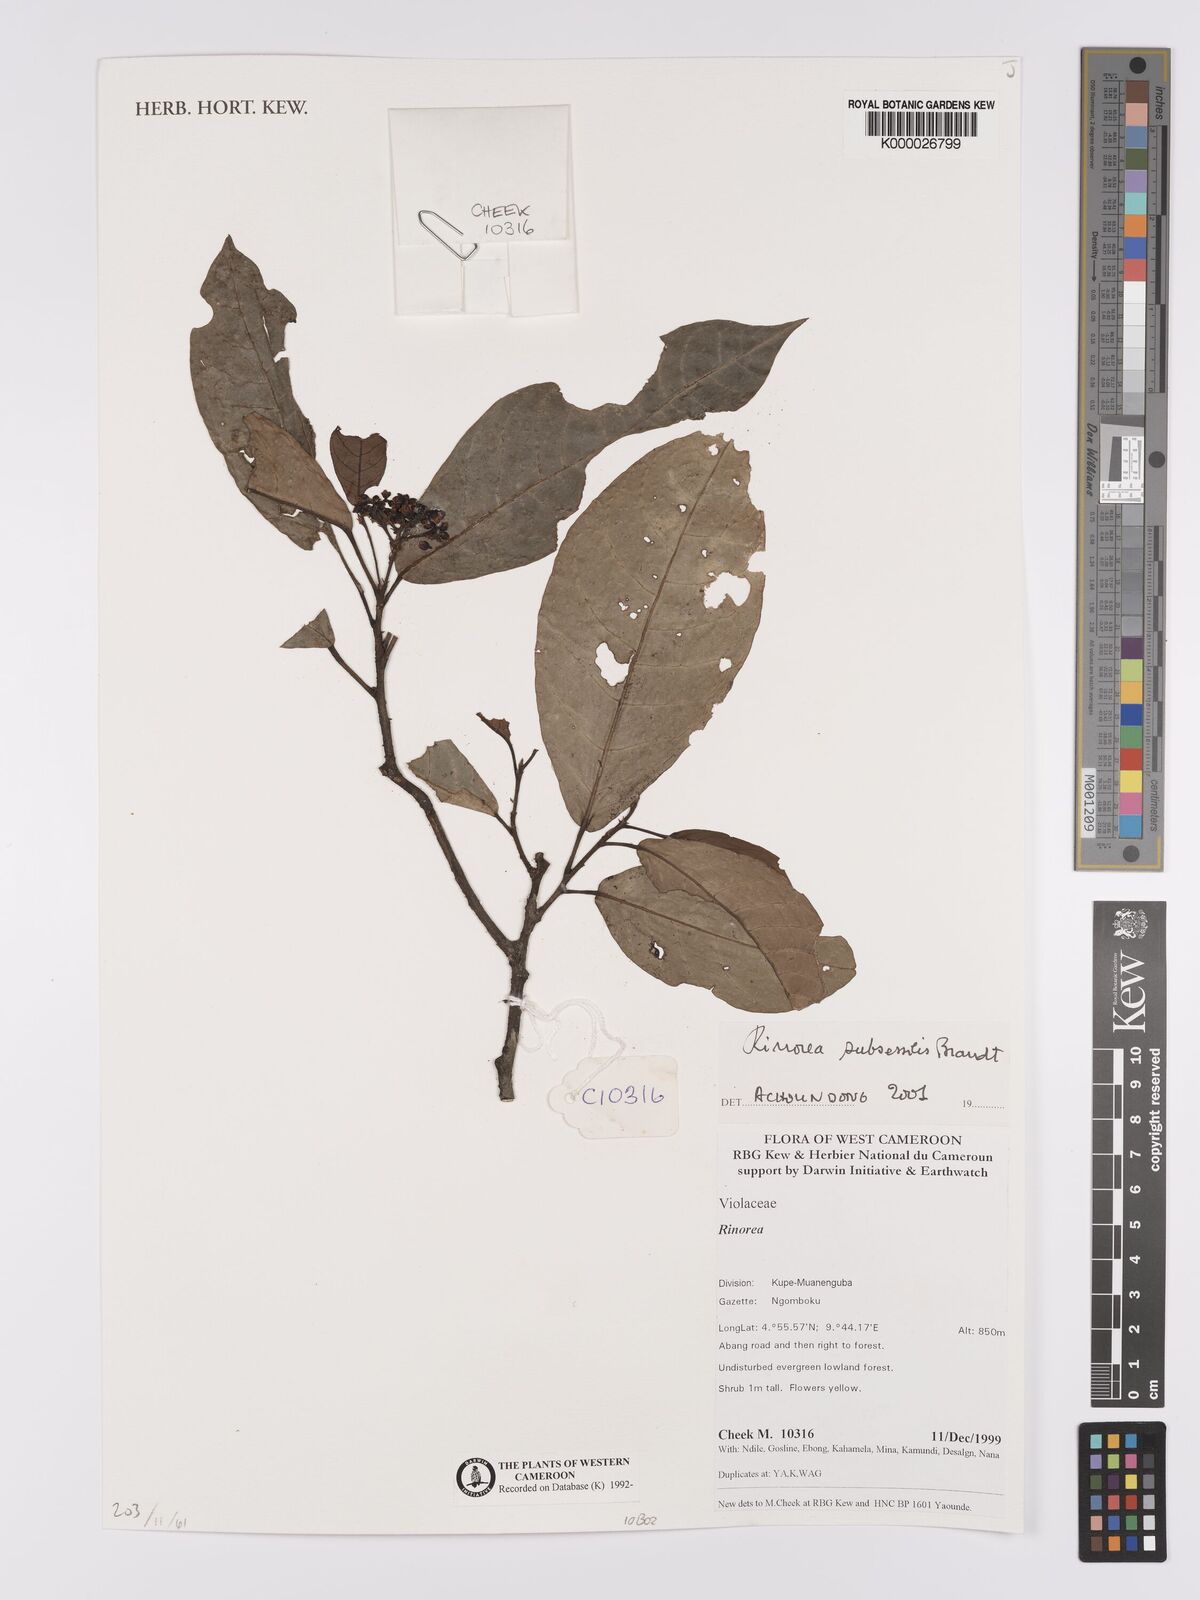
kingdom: Plantae
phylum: Tracheophyta
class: Magnoliopsida
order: Malpighiales
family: Violaceae
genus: Rinorea
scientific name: Rinorea subsessilis
